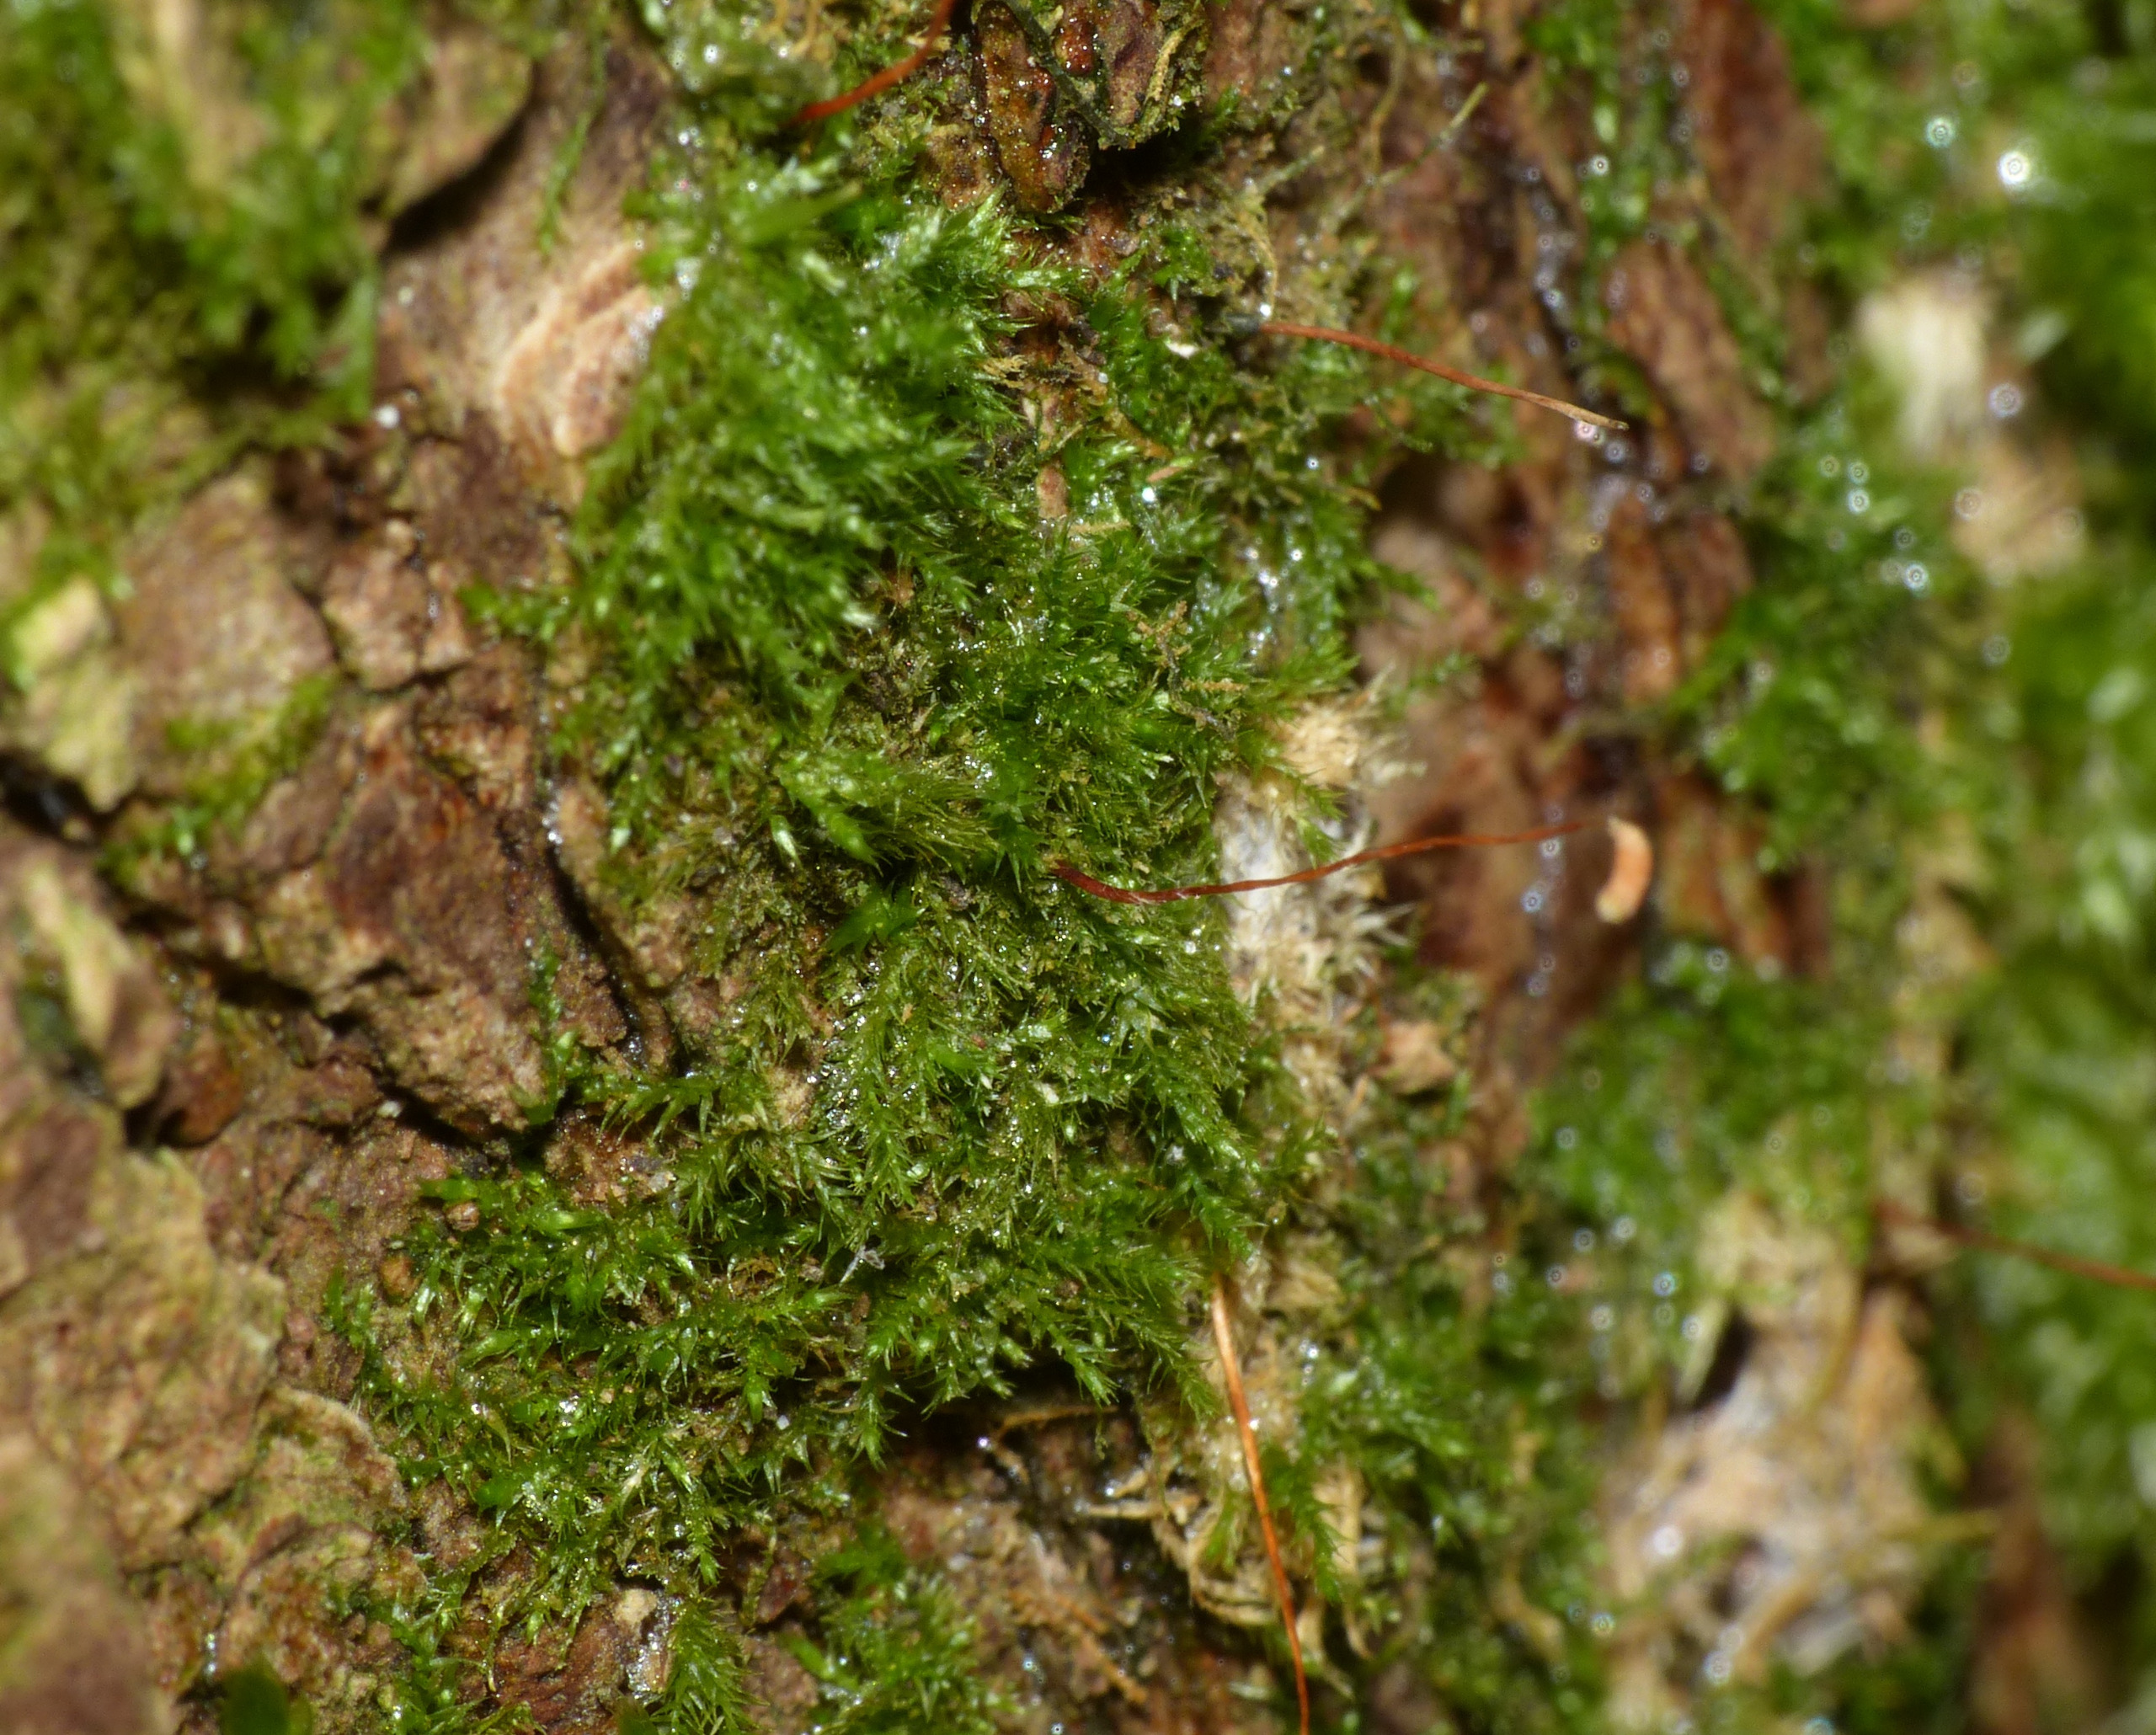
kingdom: Plantae
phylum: Bryophyta
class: Bryopsida
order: Hypnales
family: Amblystegiaceae
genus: Amblystegium
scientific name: Amblystegium serpens
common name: Almindelig krybmos
